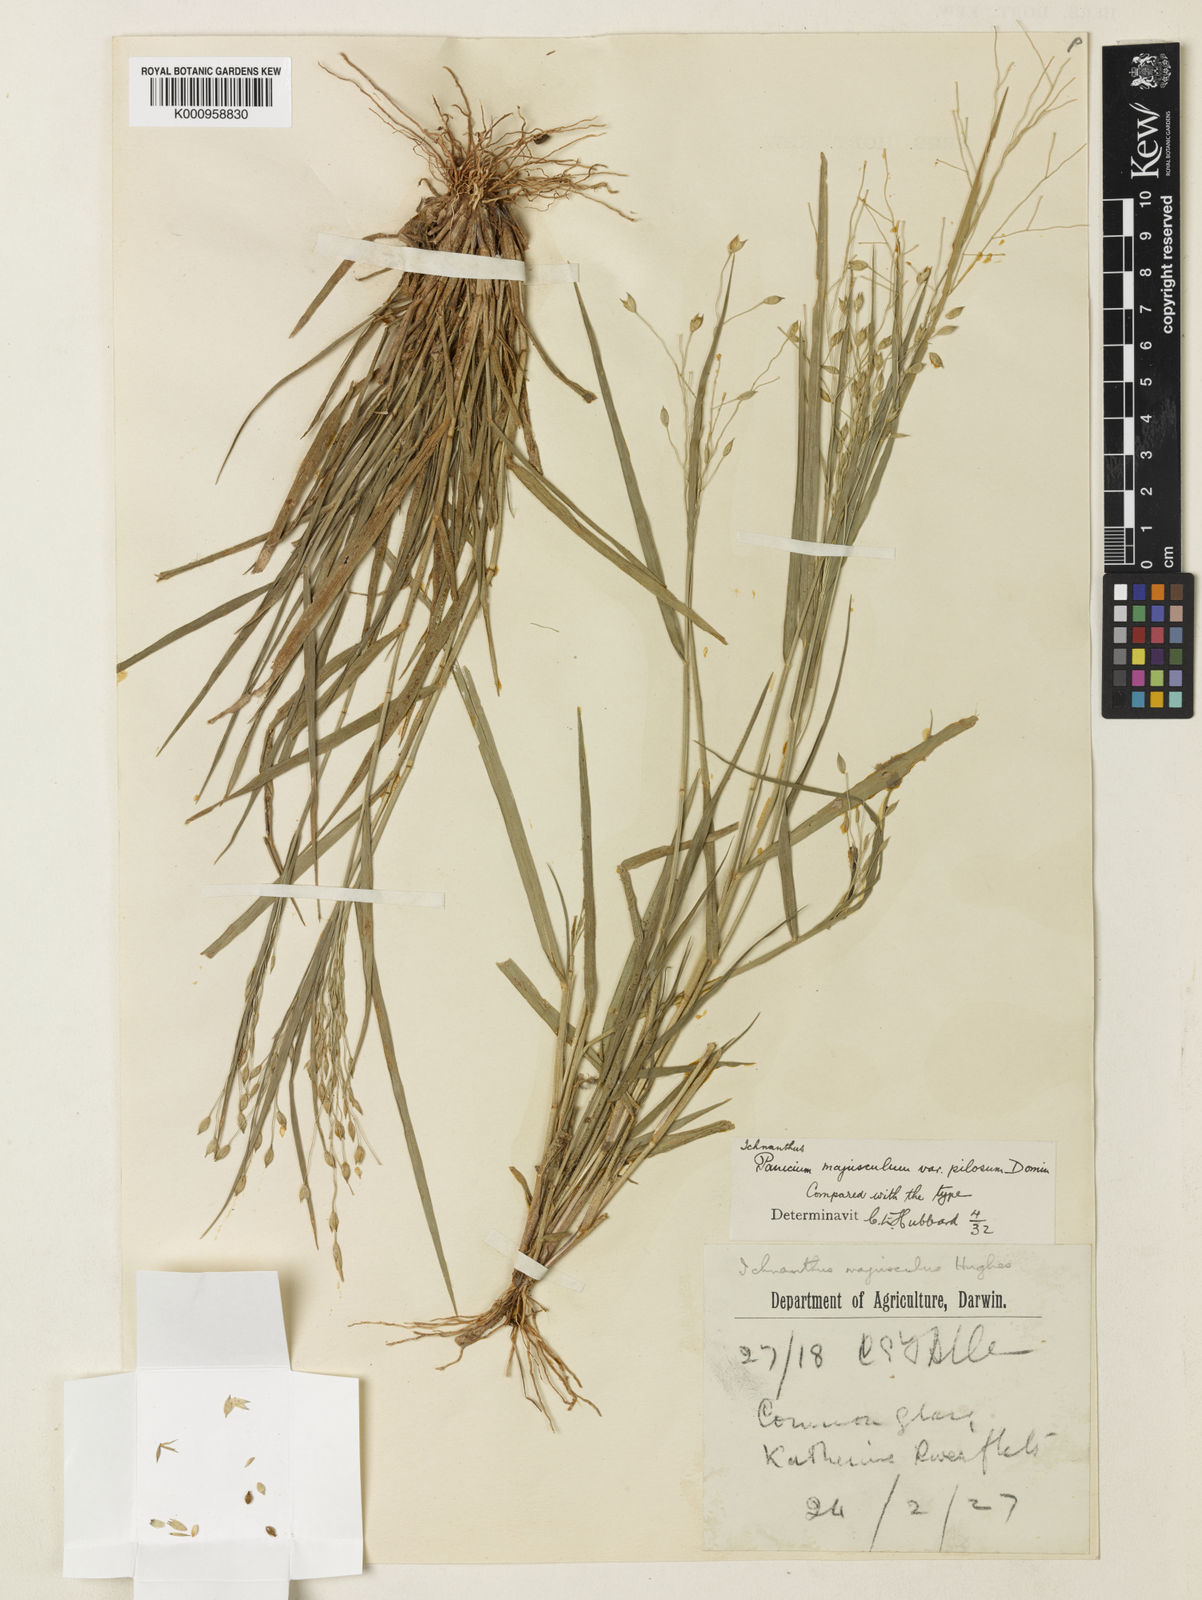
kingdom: Plantae
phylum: Tracheophyta
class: Liliopsida
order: Poales
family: Poaceae
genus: Panicum
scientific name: Panicum majusculum
